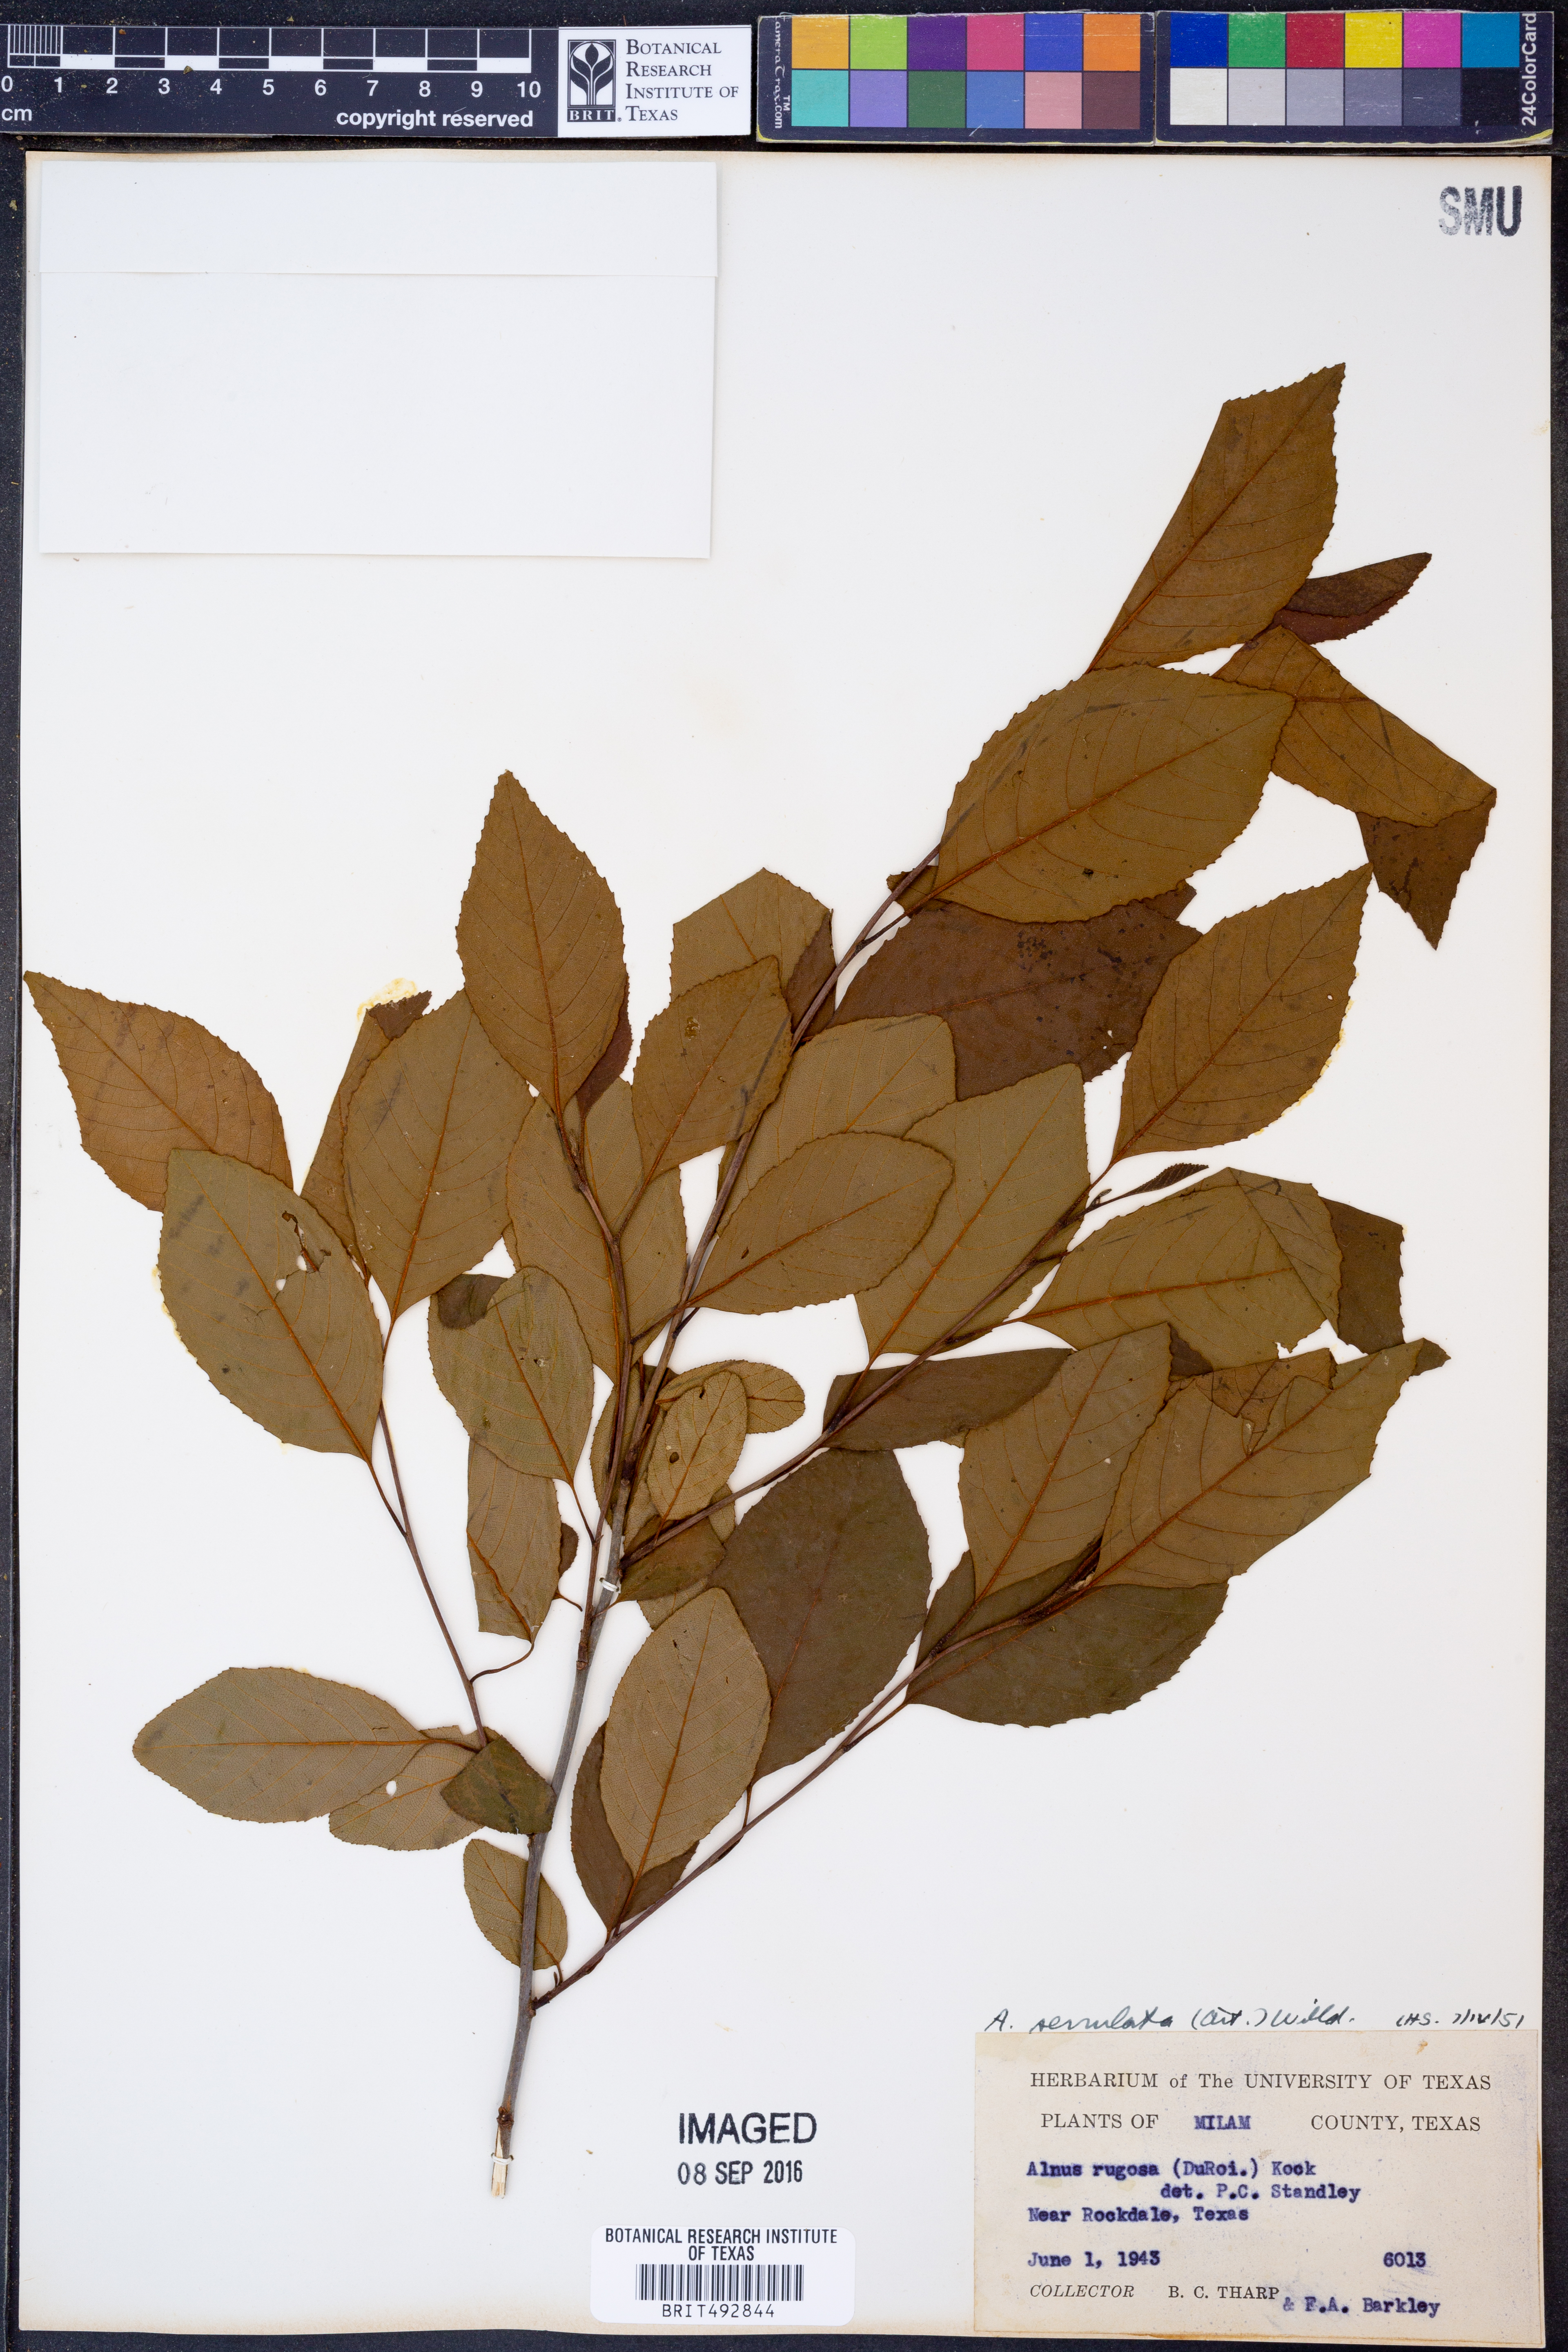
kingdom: Plantae
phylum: Tracheophyta
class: Magnoliopsida
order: Fagales
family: Betulaceae
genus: Alnus
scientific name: Alnus serrulata
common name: Hazel alder
